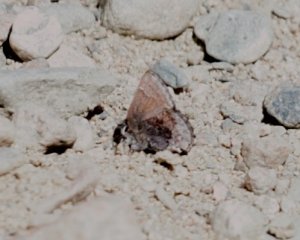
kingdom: Animalia
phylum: Arthropoda
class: Insecta
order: Lepidoptera
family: Lycaenidae
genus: Incisalia
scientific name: Incisalia henrici
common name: Henry's Elfin
